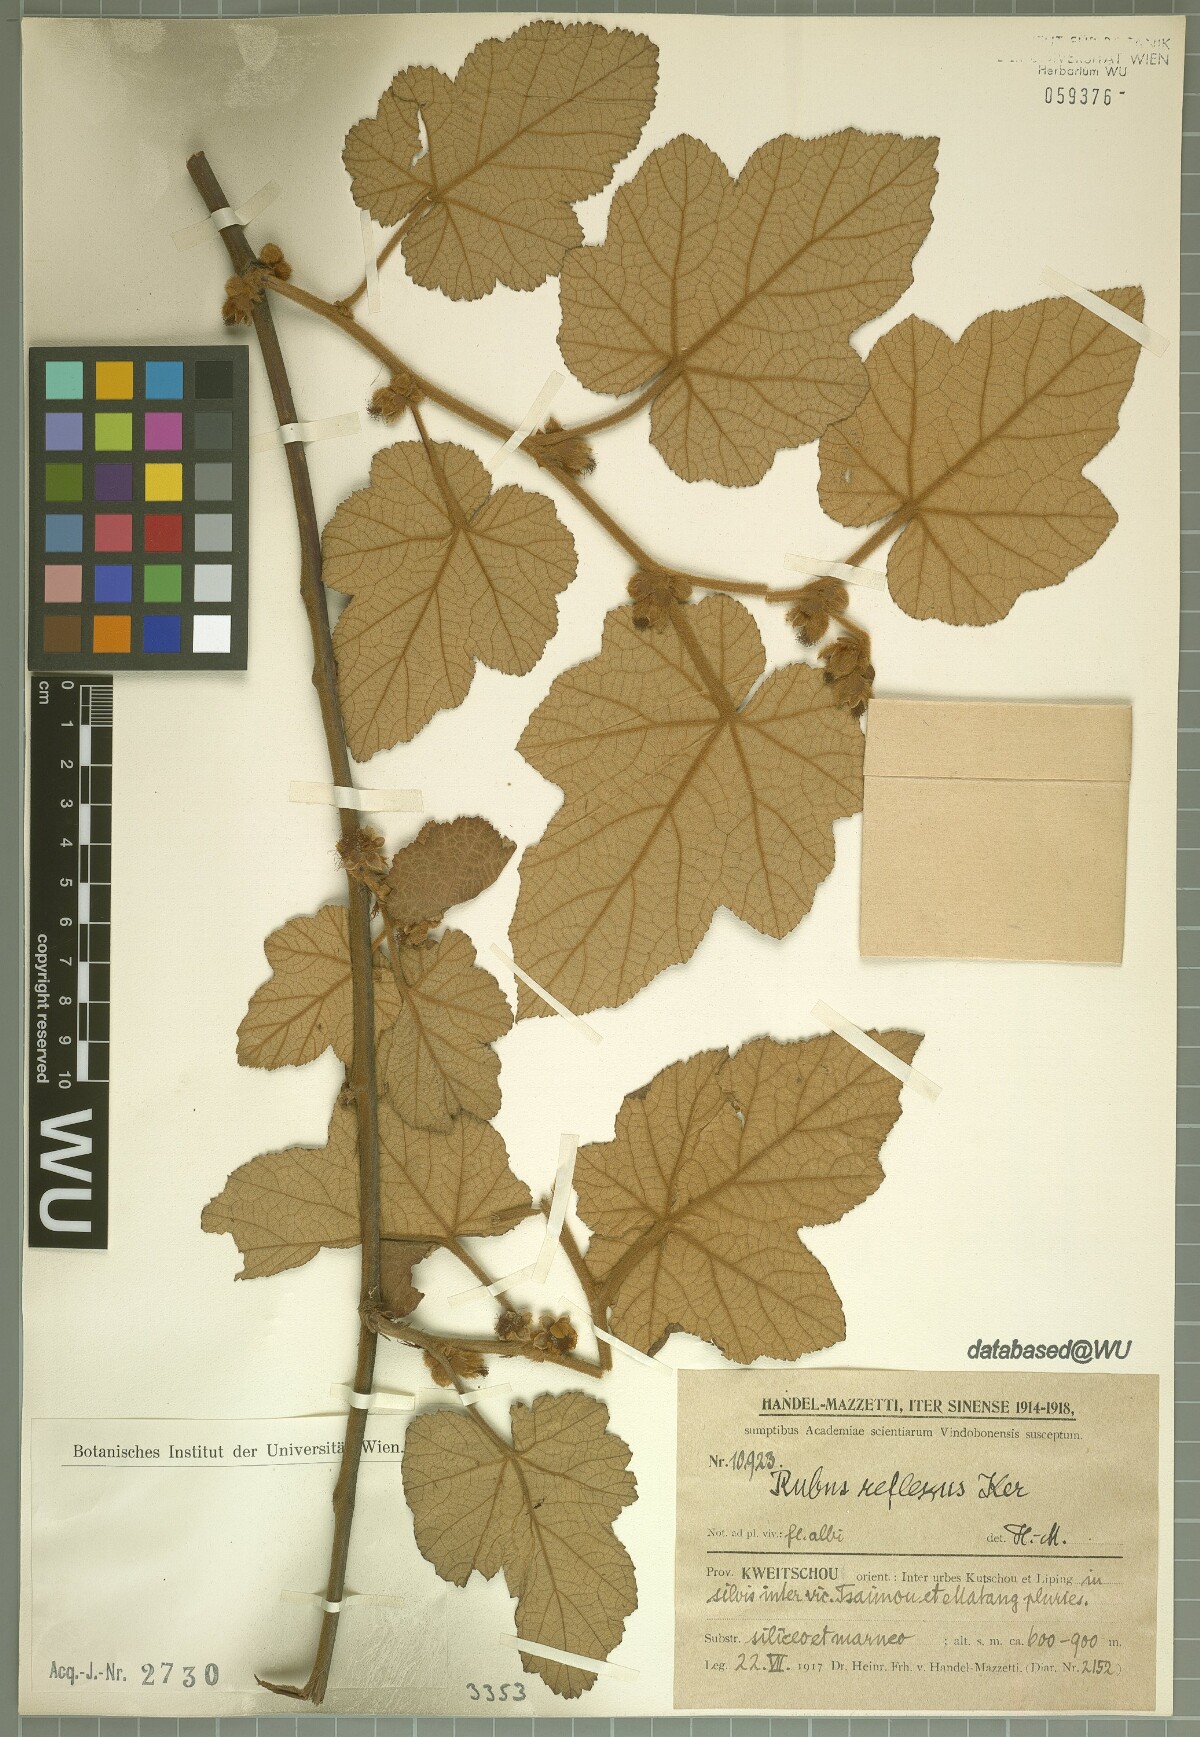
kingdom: Plantae
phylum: Tracheophyta
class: Magnoliopsida
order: Rosales
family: Rosaceae
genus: Rubus
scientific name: Rubus reflexus
